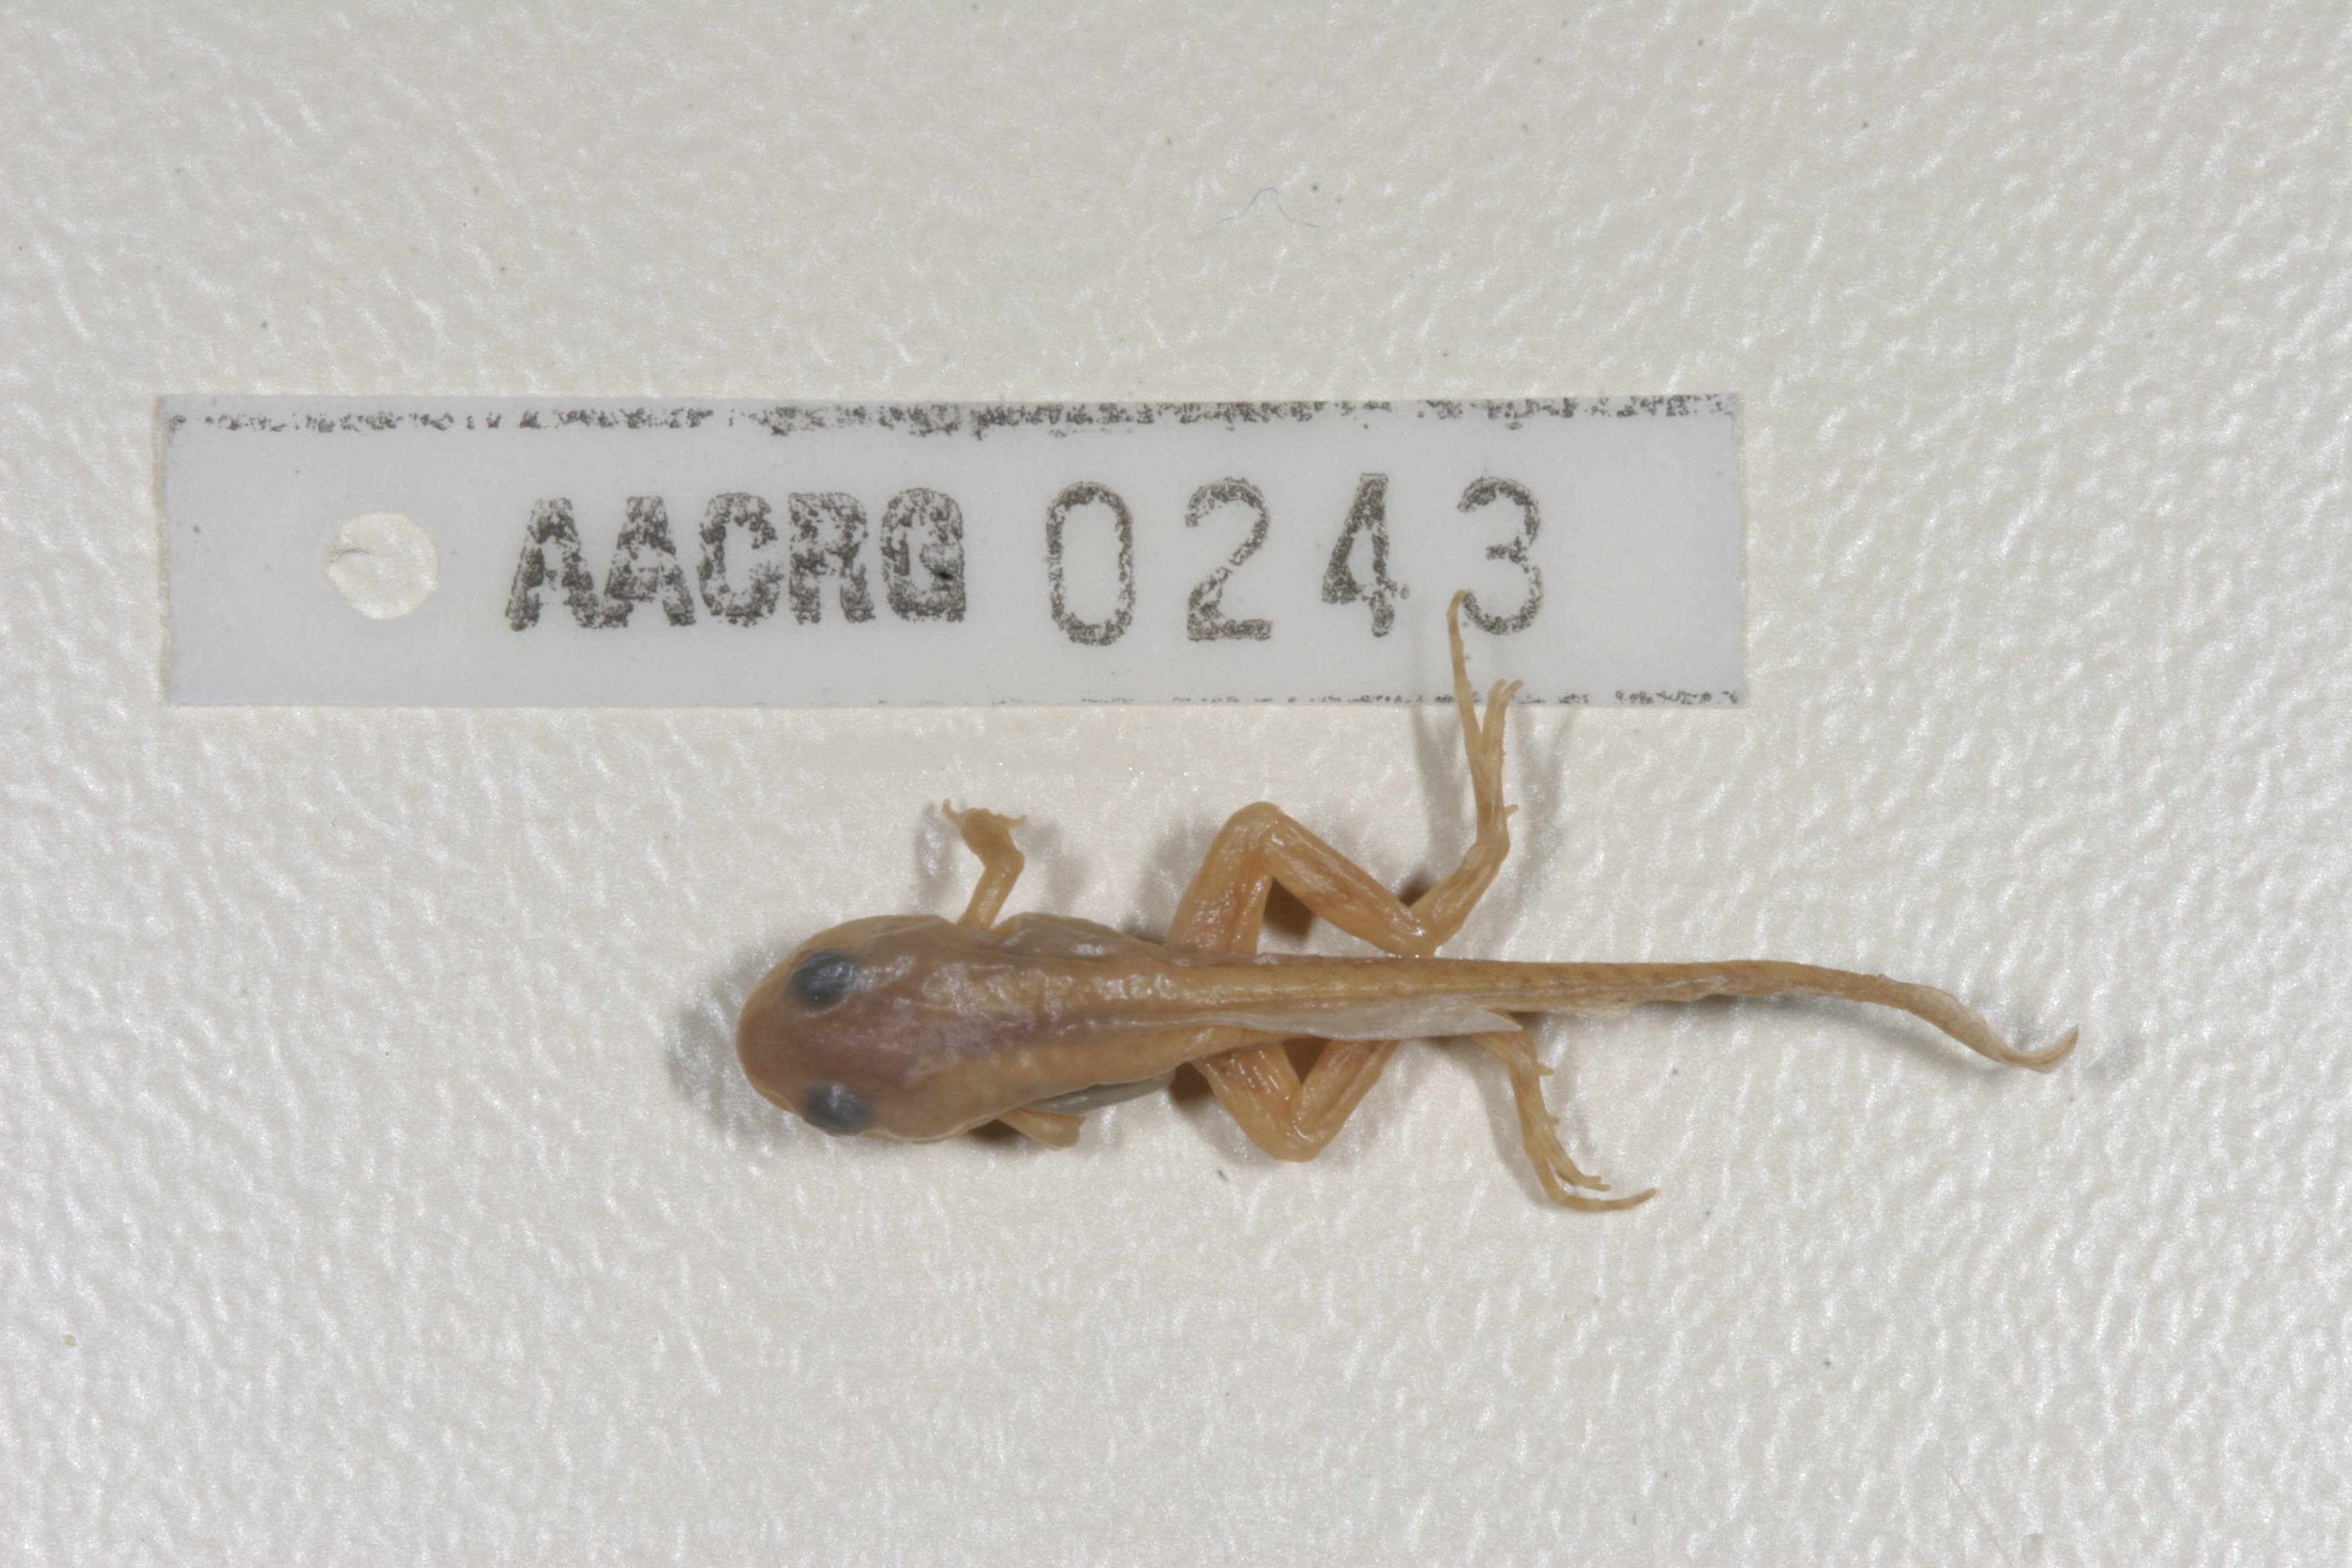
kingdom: Animalia
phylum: Chordata
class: Amphibia
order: Anura
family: Pyxicephalidae
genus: Amietia
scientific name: Amietia angolensis
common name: Dusky-throated frog
